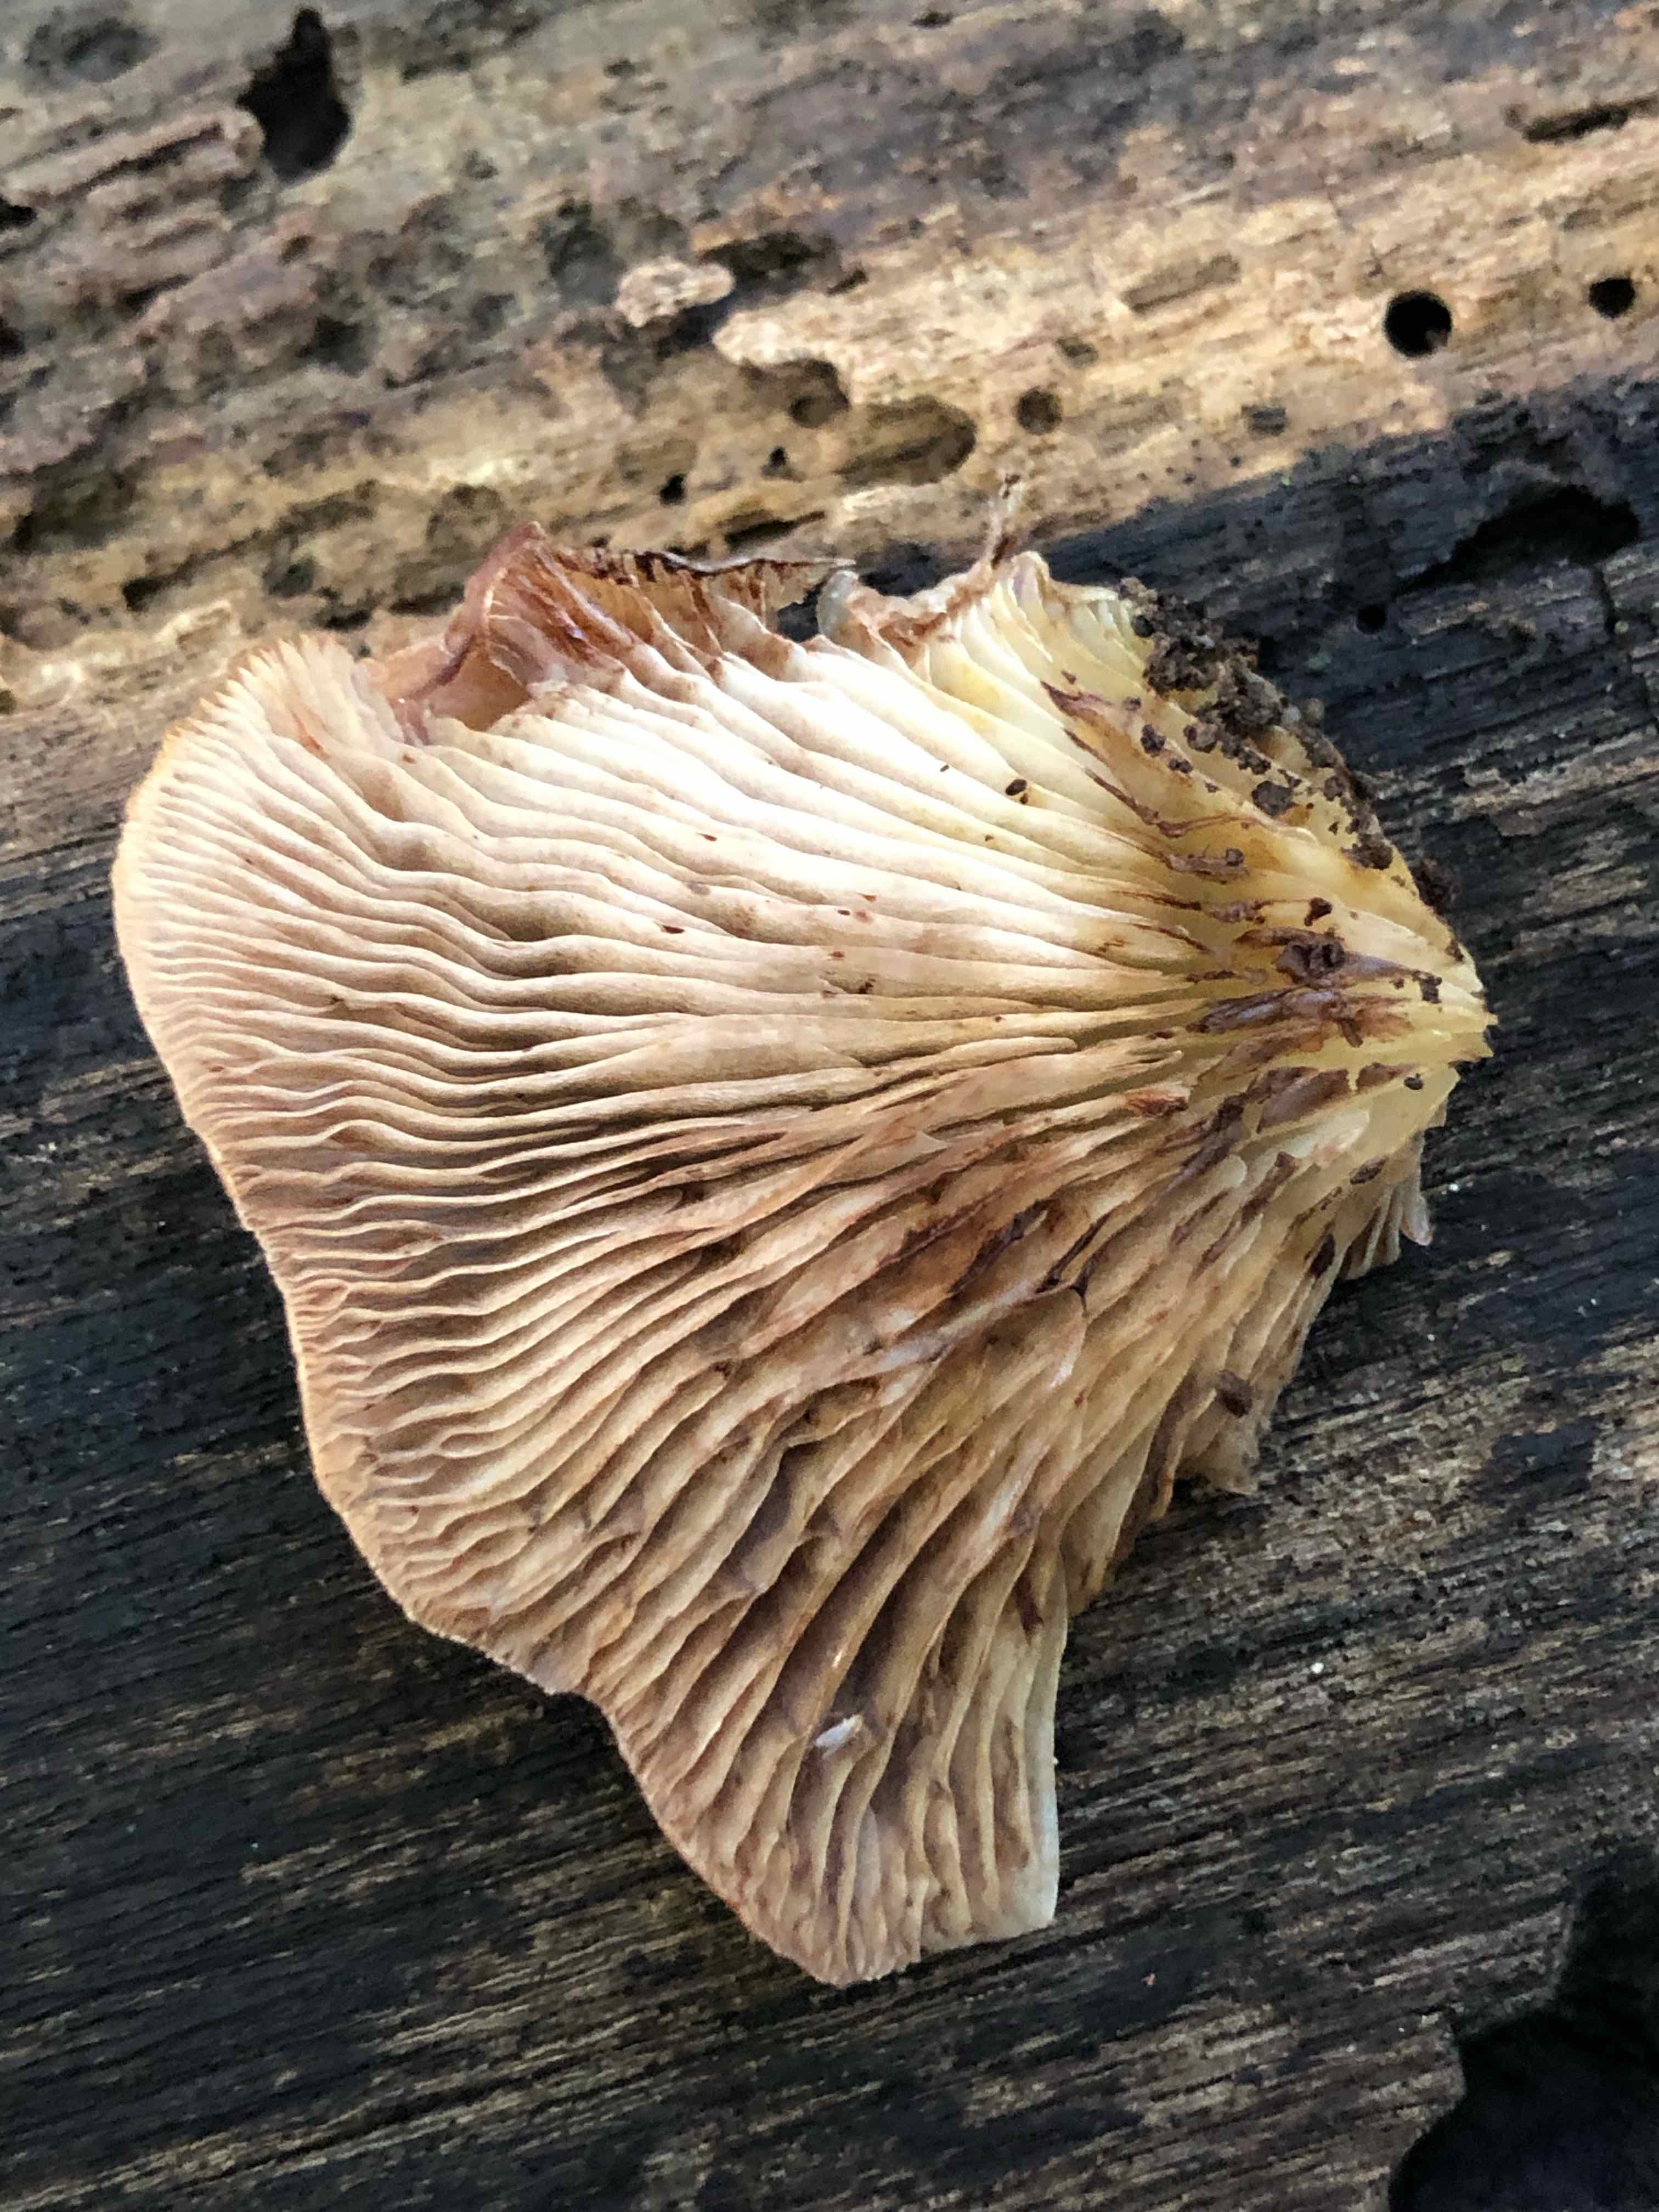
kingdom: Fungi
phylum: Basidiomycota
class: Agaricomycetes
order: Agaricales
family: Crepidotaceae
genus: Crepidotus
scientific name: Crepidotus mollis
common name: blød muslingesvamp
